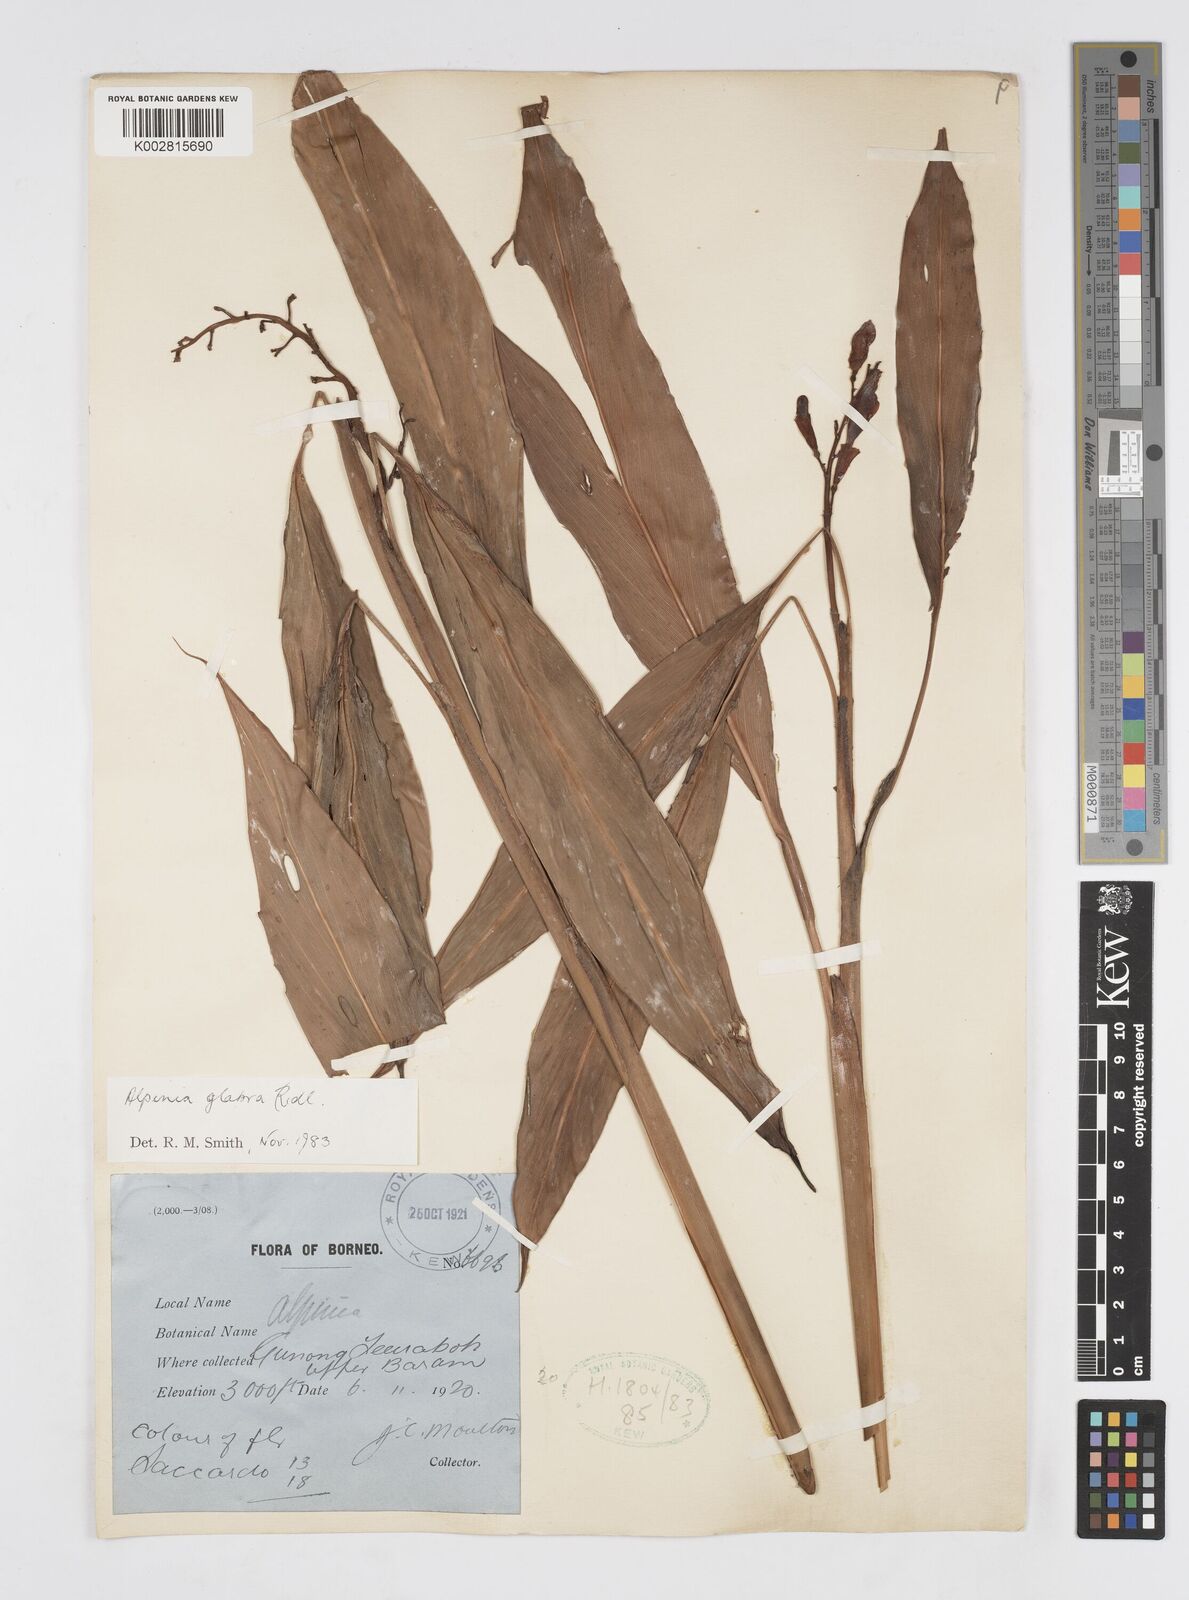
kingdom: Plantae
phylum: Tracheophyta
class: Liliopsida
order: Zingiberales
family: Zingiberaceae
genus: Alpinia
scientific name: Alpinia glabra
